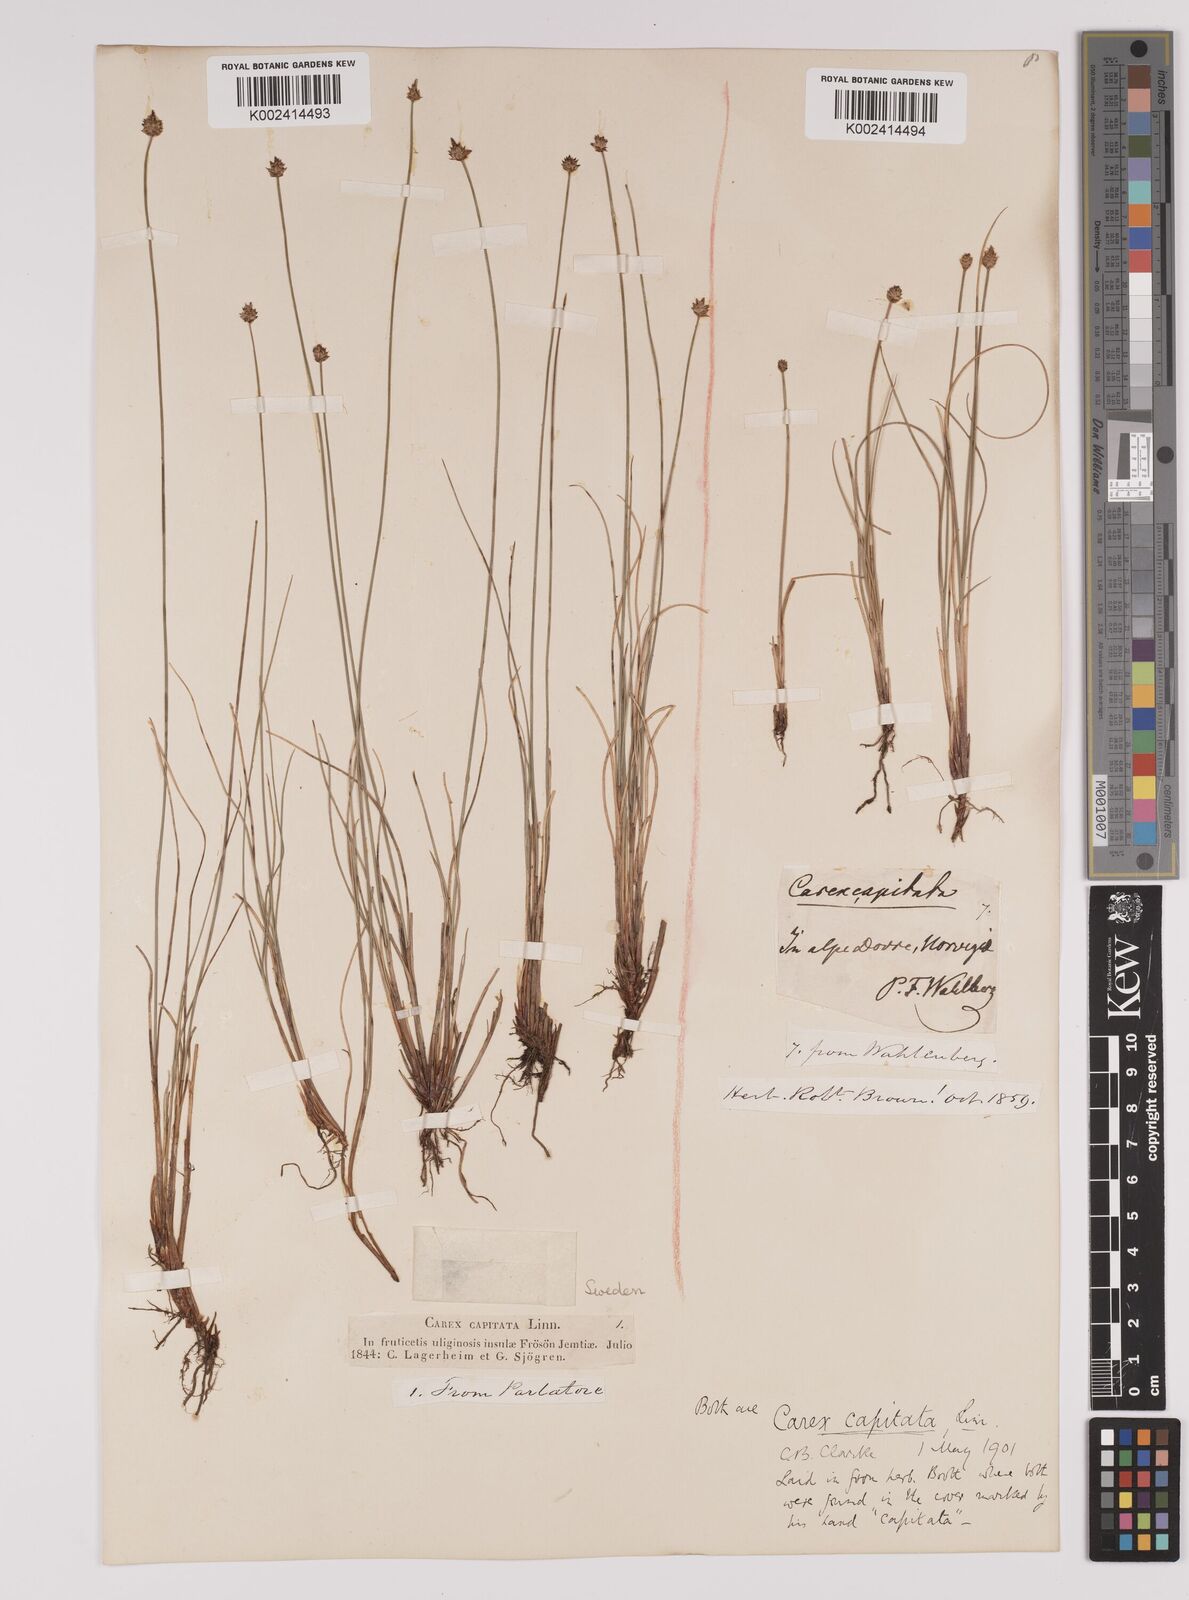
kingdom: Plantae
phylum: Tracheophyta
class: Liliopsida
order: Poales
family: Cyperaceae
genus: Carex
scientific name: Carex capitata
